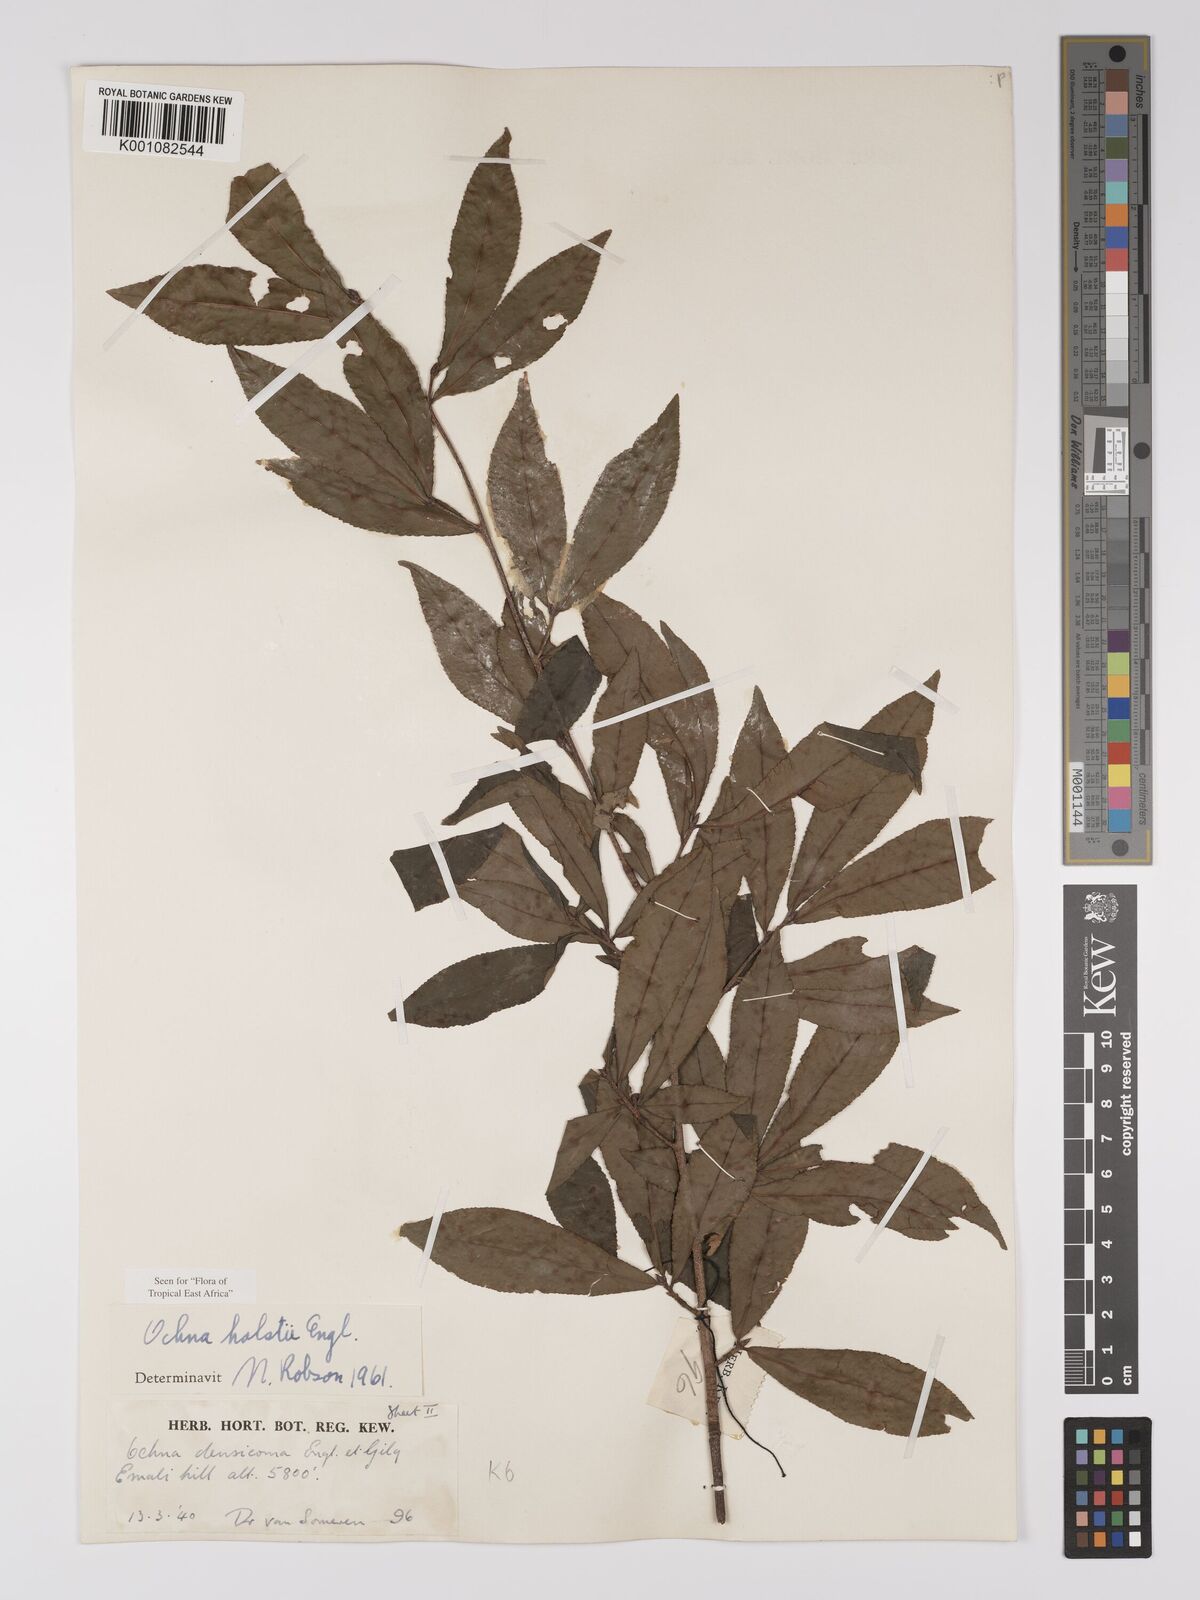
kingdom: Plantae
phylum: Tracheophyta
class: Magnoliopsida
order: Malpighiales
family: Ochnaceae
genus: Ochna
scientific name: Ochna holstii
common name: Red ironwood
